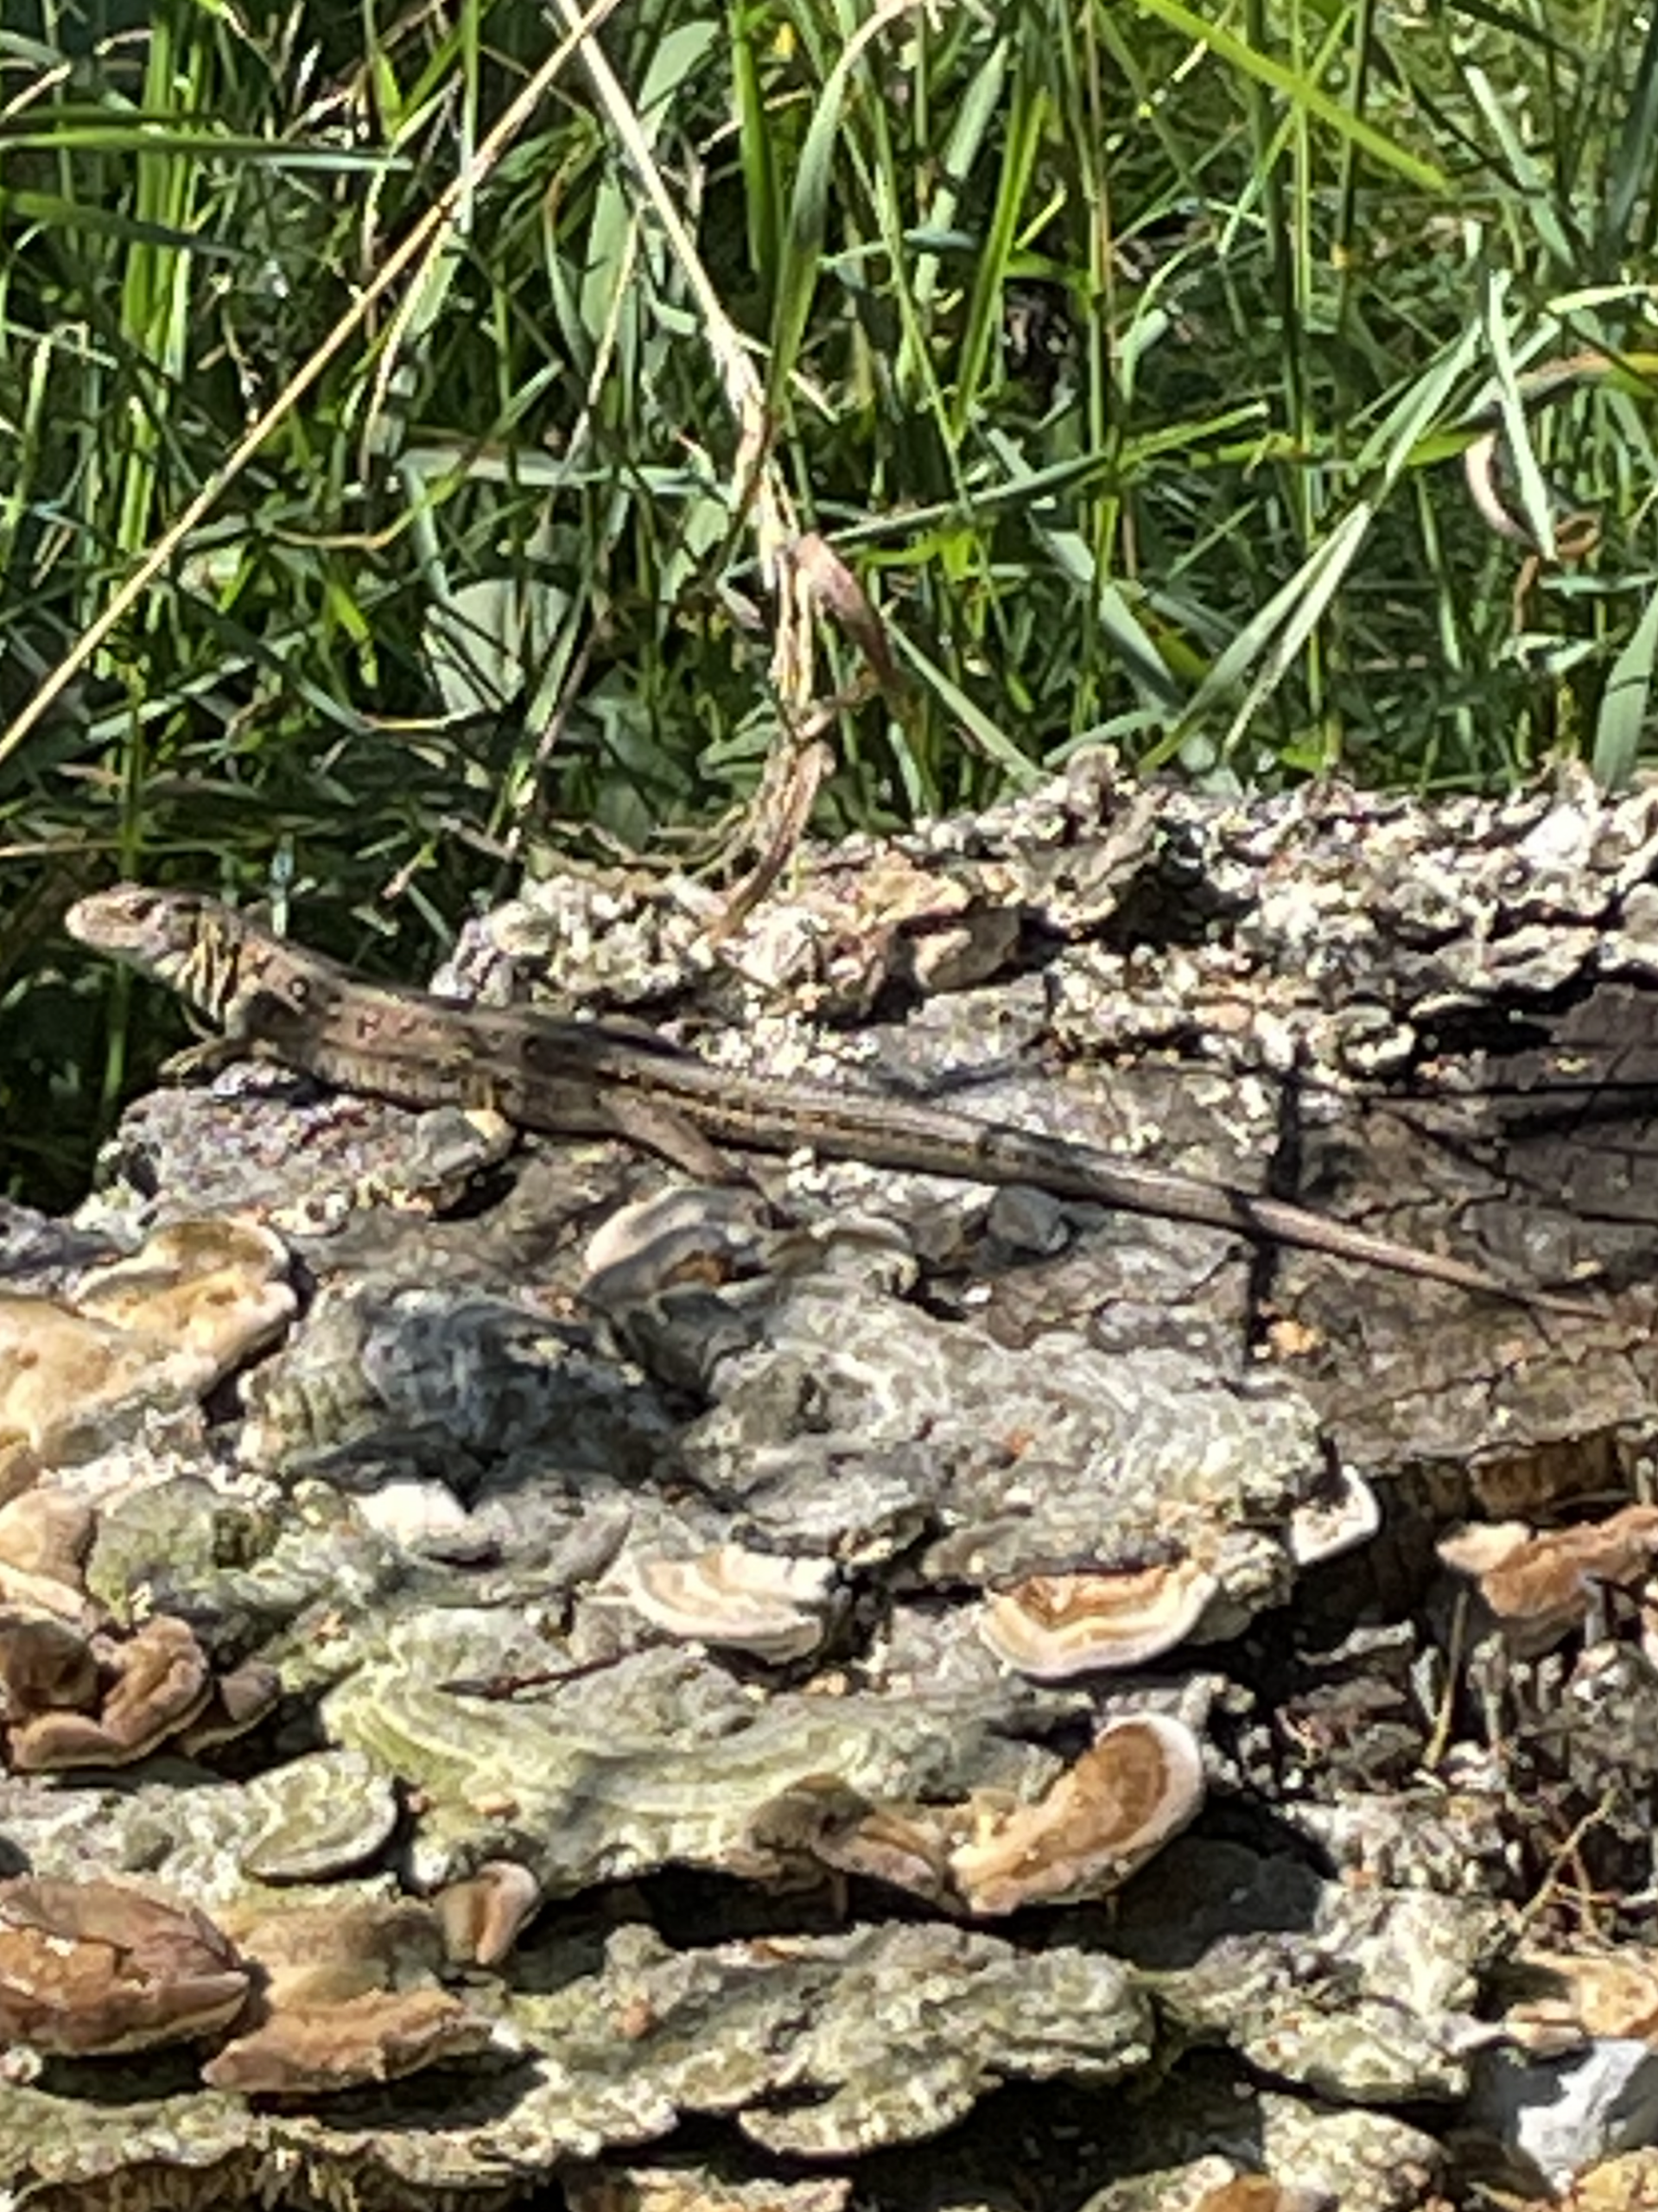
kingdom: Animalia
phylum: Chordata
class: Squamata
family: Lacertidae
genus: Lacerta
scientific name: Lacerta agilis
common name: Markfirben
